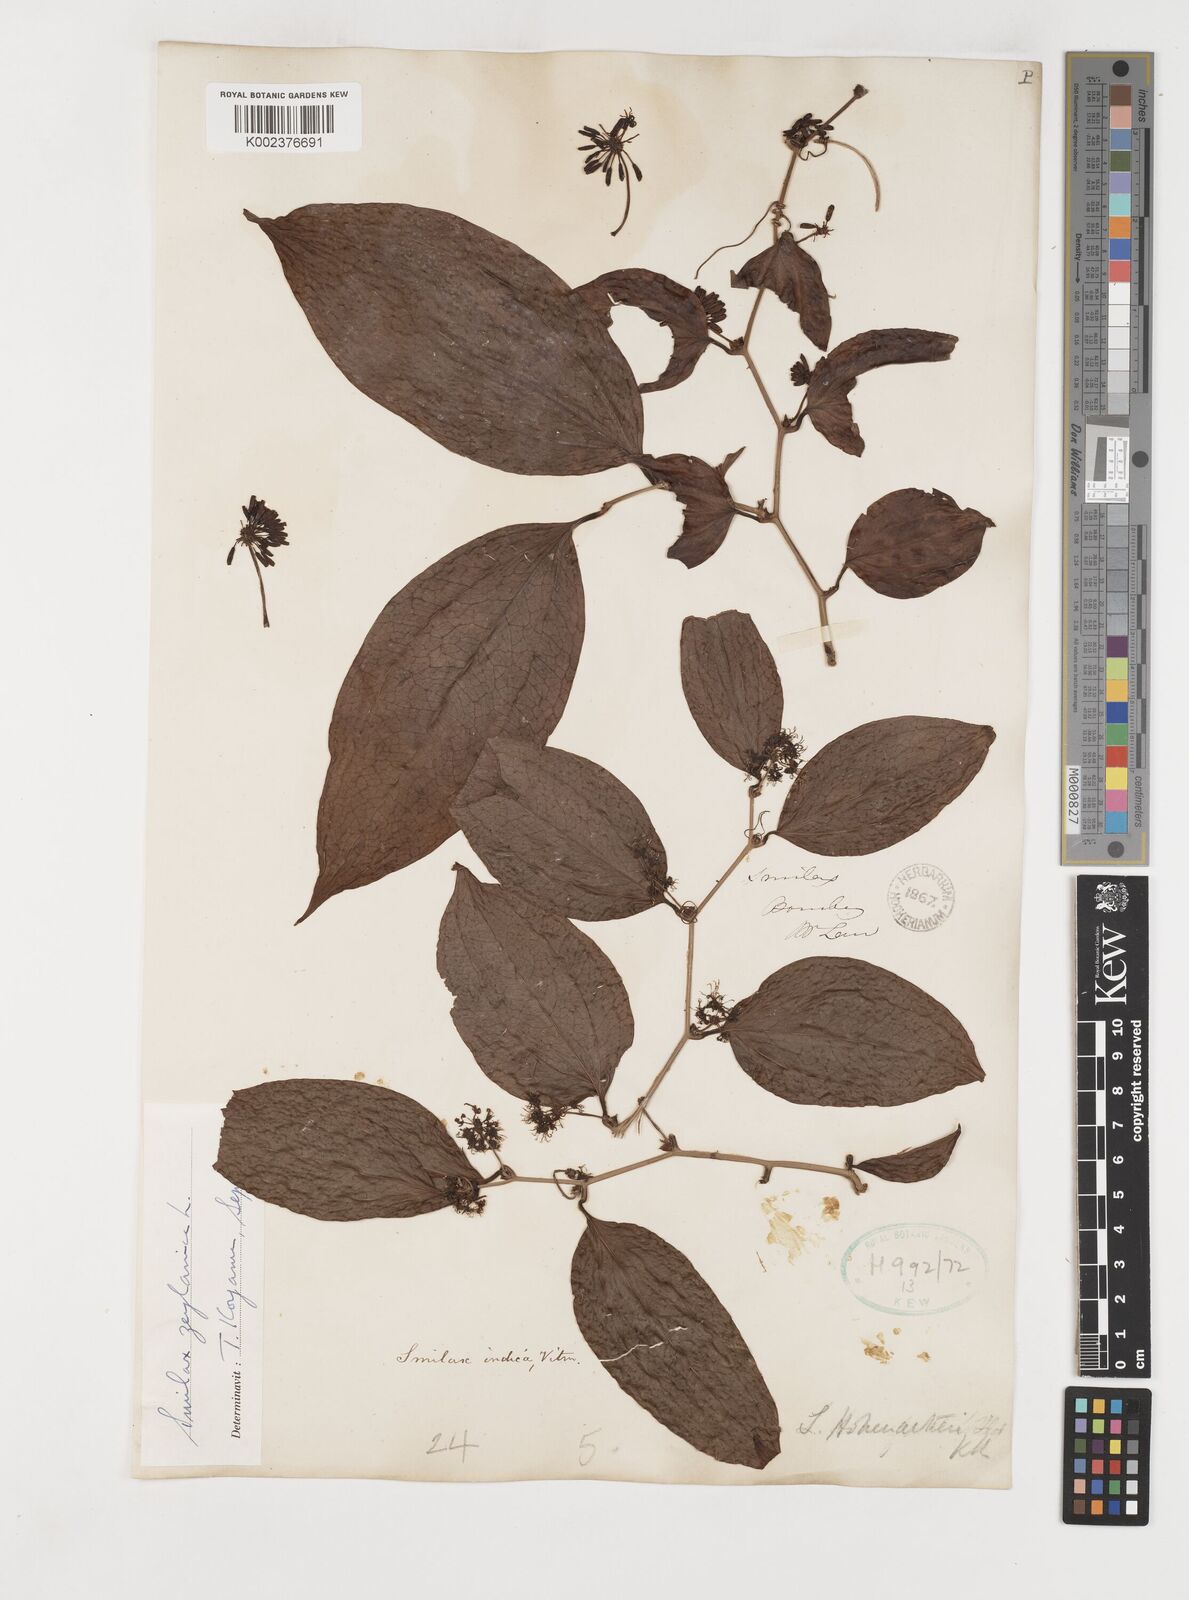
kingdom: Plantae
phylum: Tracheophyta
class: Liliopsida
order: Liliales
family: Smilacaceae
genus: Smilax
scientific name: Smilax zeylanica
